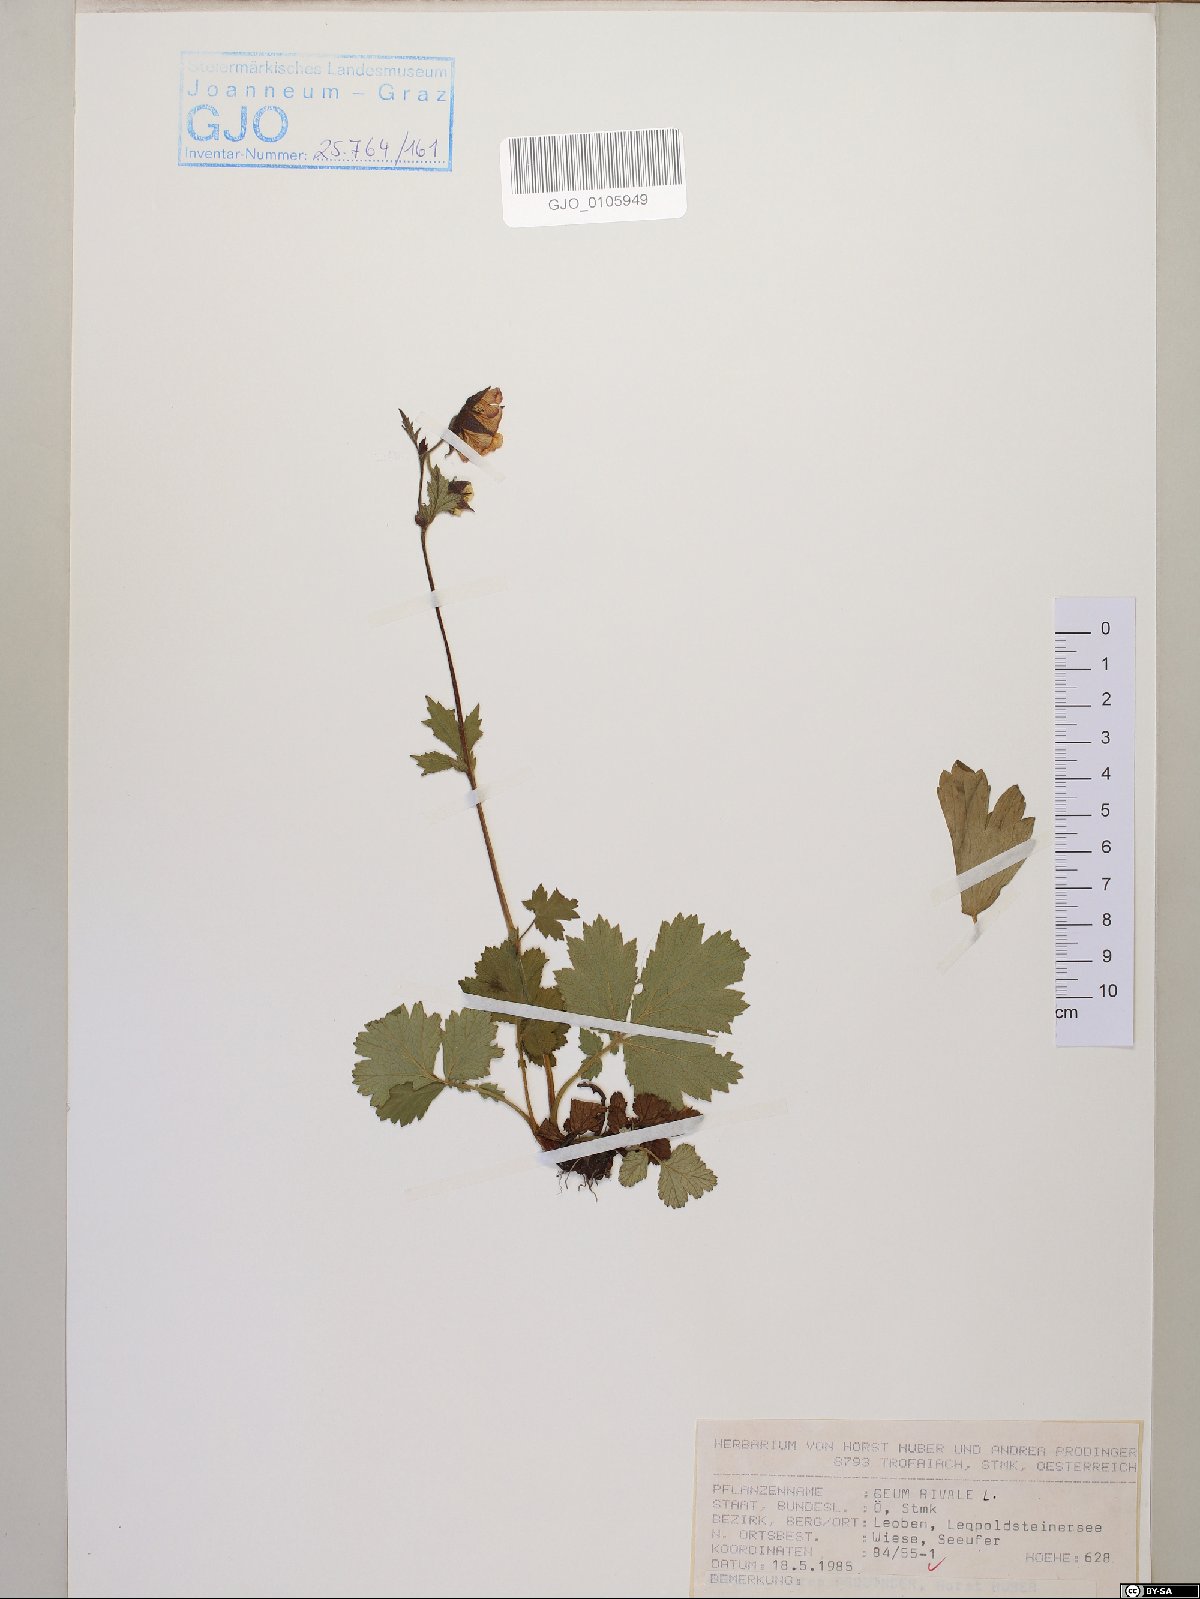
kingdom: Plantae
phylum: Tracheophyta
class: Magnoliopsida
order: Rosales
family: Rosaceae
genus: Geum
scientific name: Geum rivale
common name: Water avens
